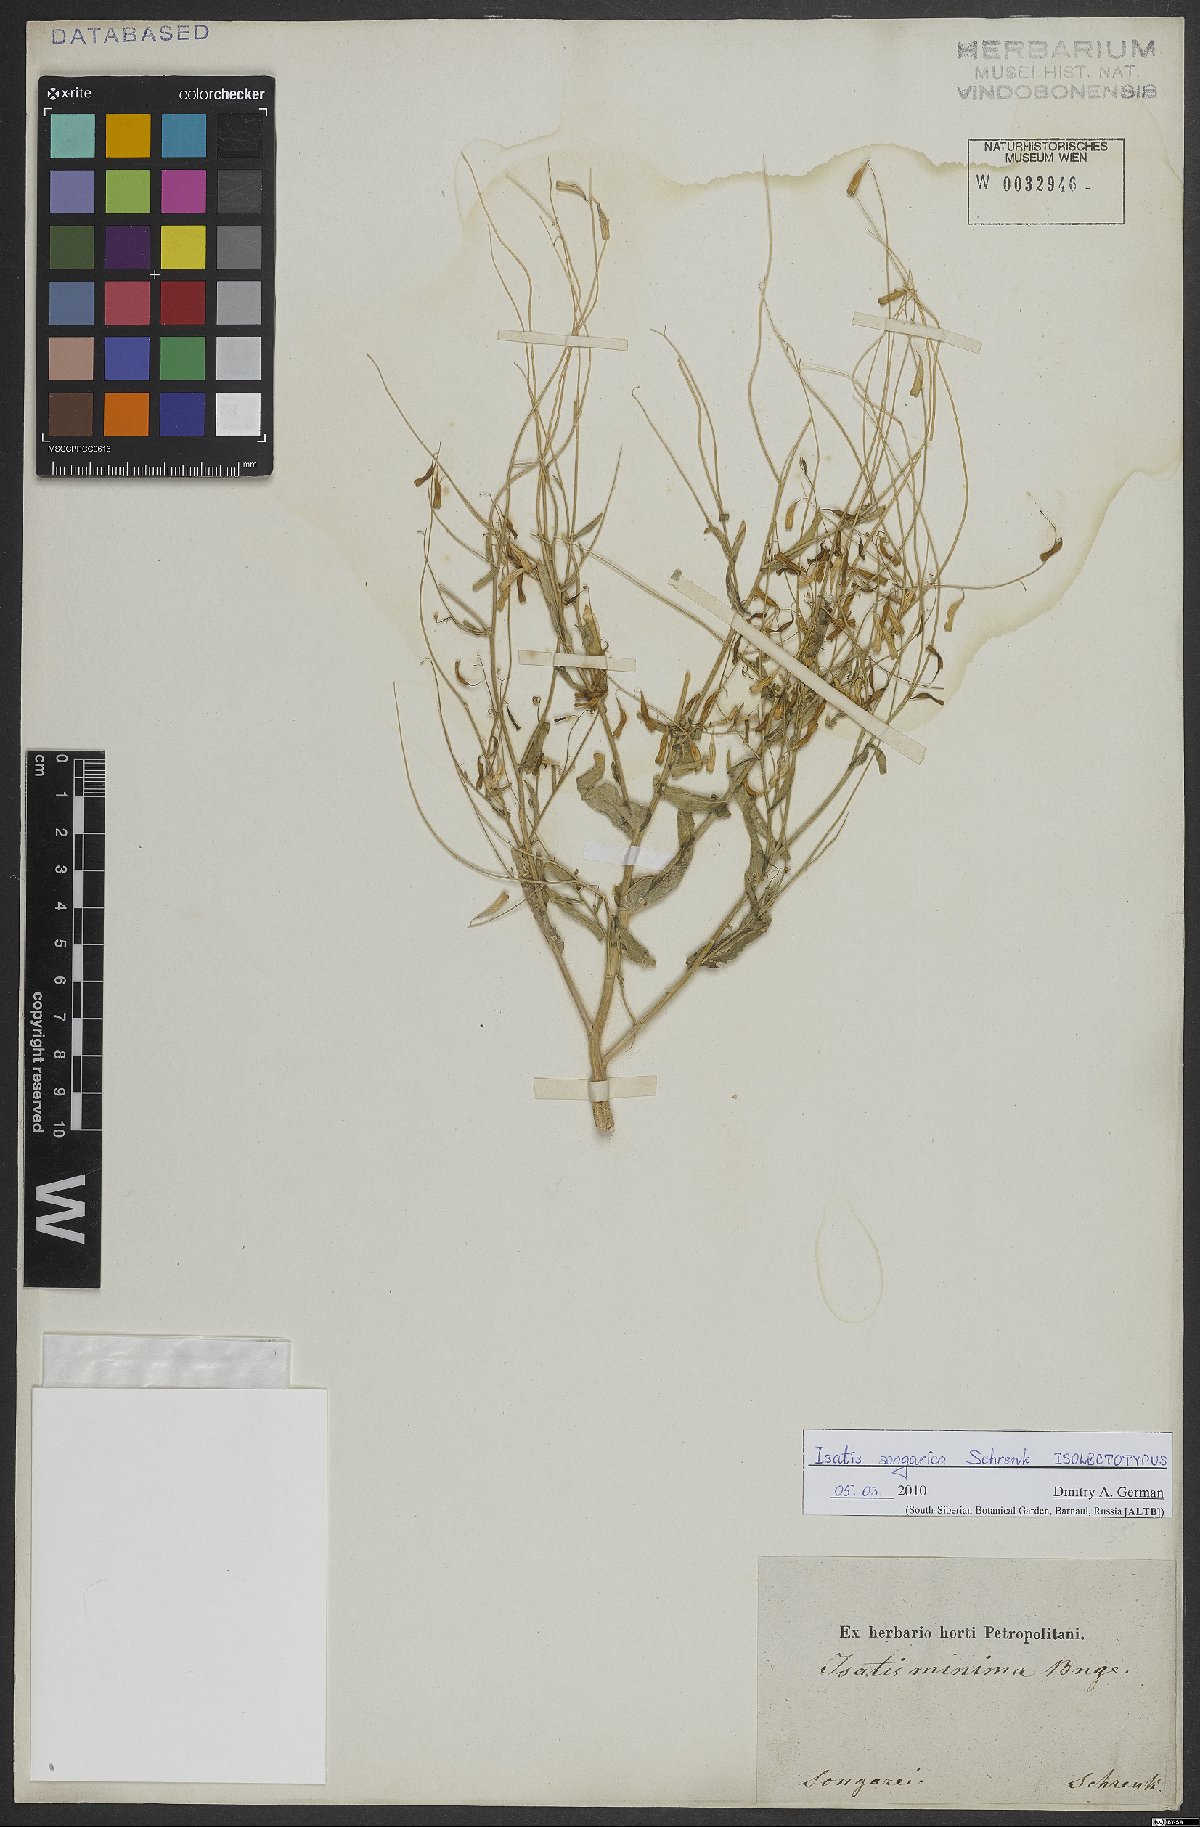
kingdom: Plantae
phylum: Tracheophyta
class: Magnoliopsida
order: Brassicales
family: Brassicaceae
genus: Isatis
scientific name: Isatis minima
